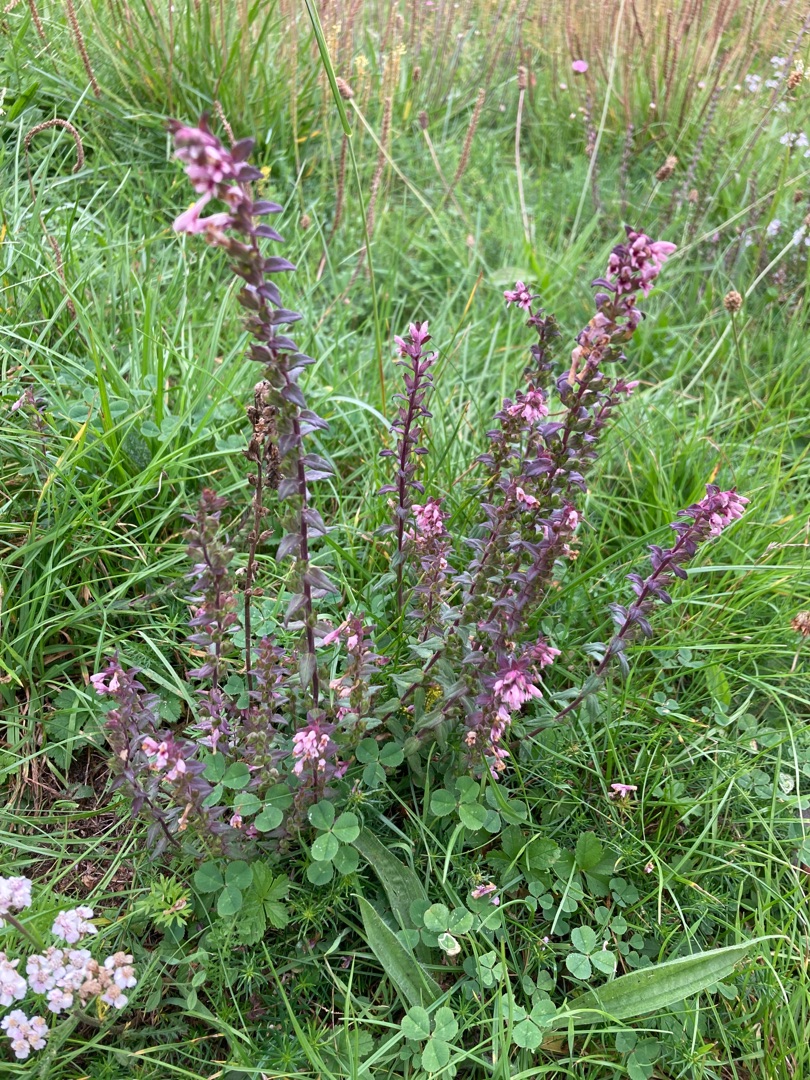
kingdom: Plantae
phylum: Tracheophyta
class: Magnoliopsida
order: Lamiales
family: Orobanchaceae
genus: Odontites
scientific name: Odontites vernus
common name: Mark-rødtop
